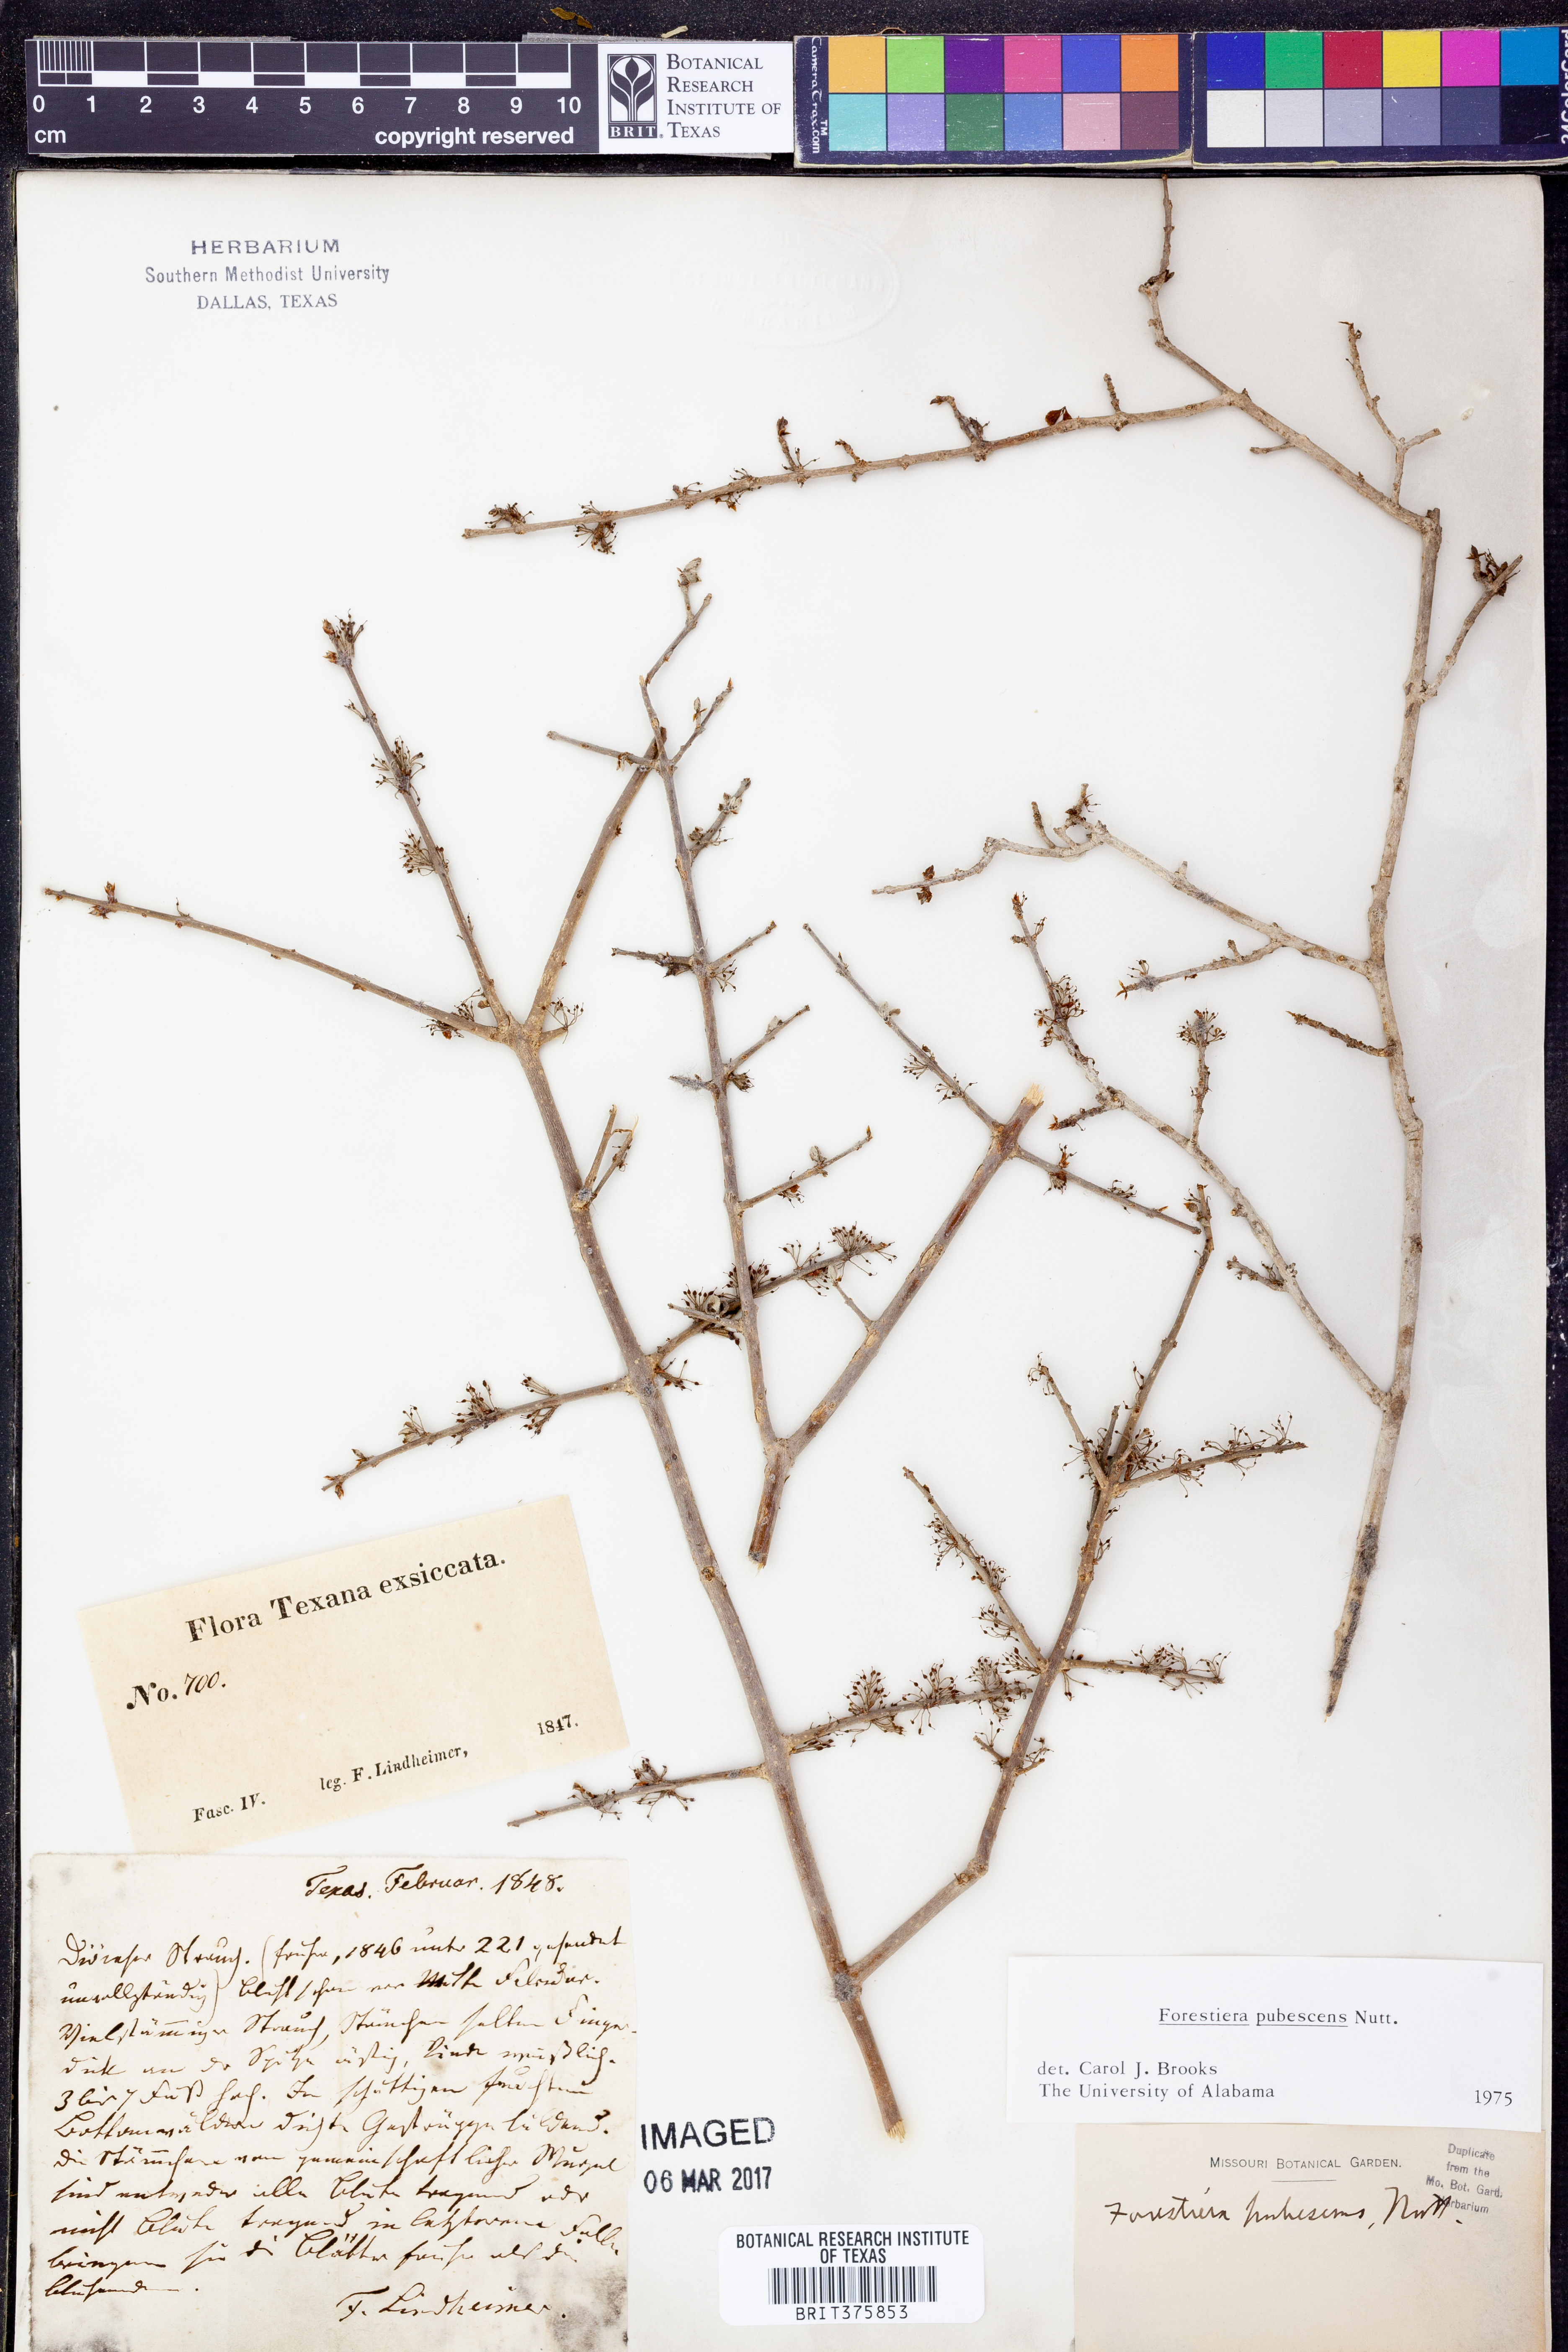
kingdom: Plantae
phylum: Tracheophyta
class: Magnoliopsida
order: Lamiales
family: Oleaceae
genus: Forestiera
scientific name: Forestiera pubescens
